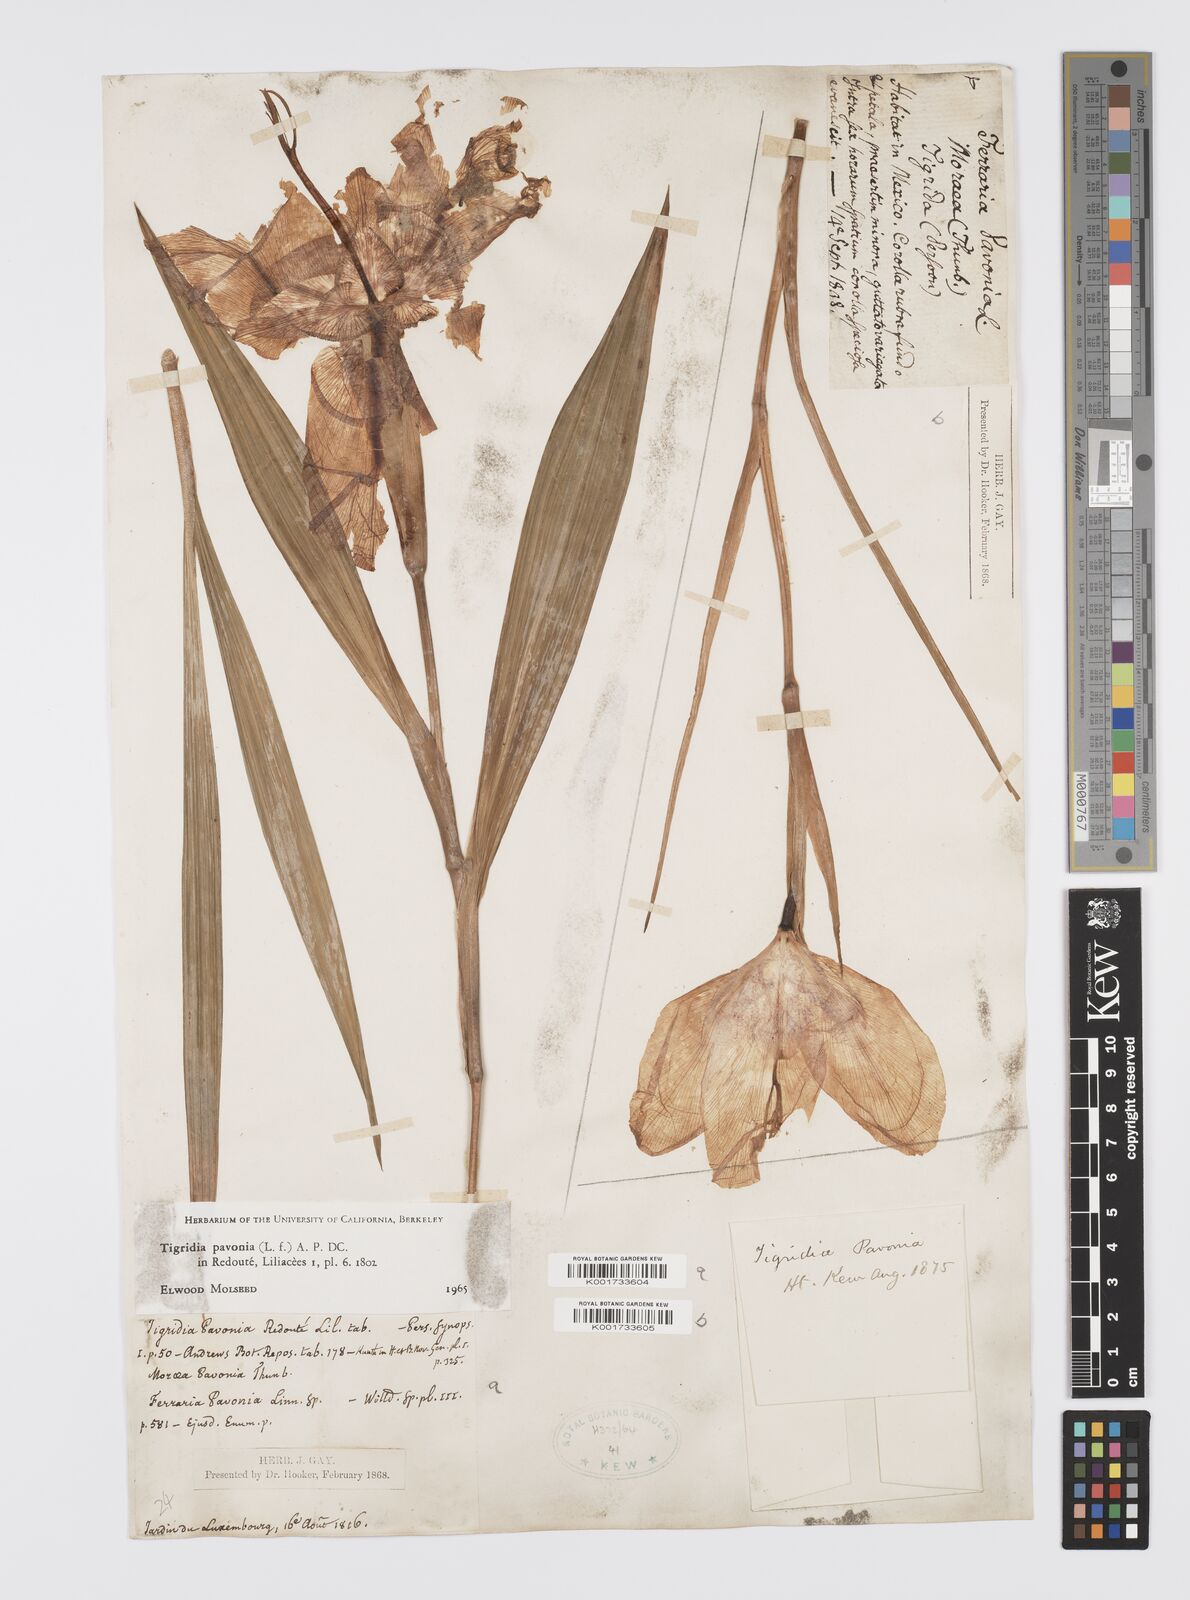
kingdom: Plantae
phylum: Tracheophyta
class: Liliopsida
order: Asparagales
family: Iridaceae
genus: Tigridia
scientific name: Tigridia pavonia
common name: Peacock-flower
